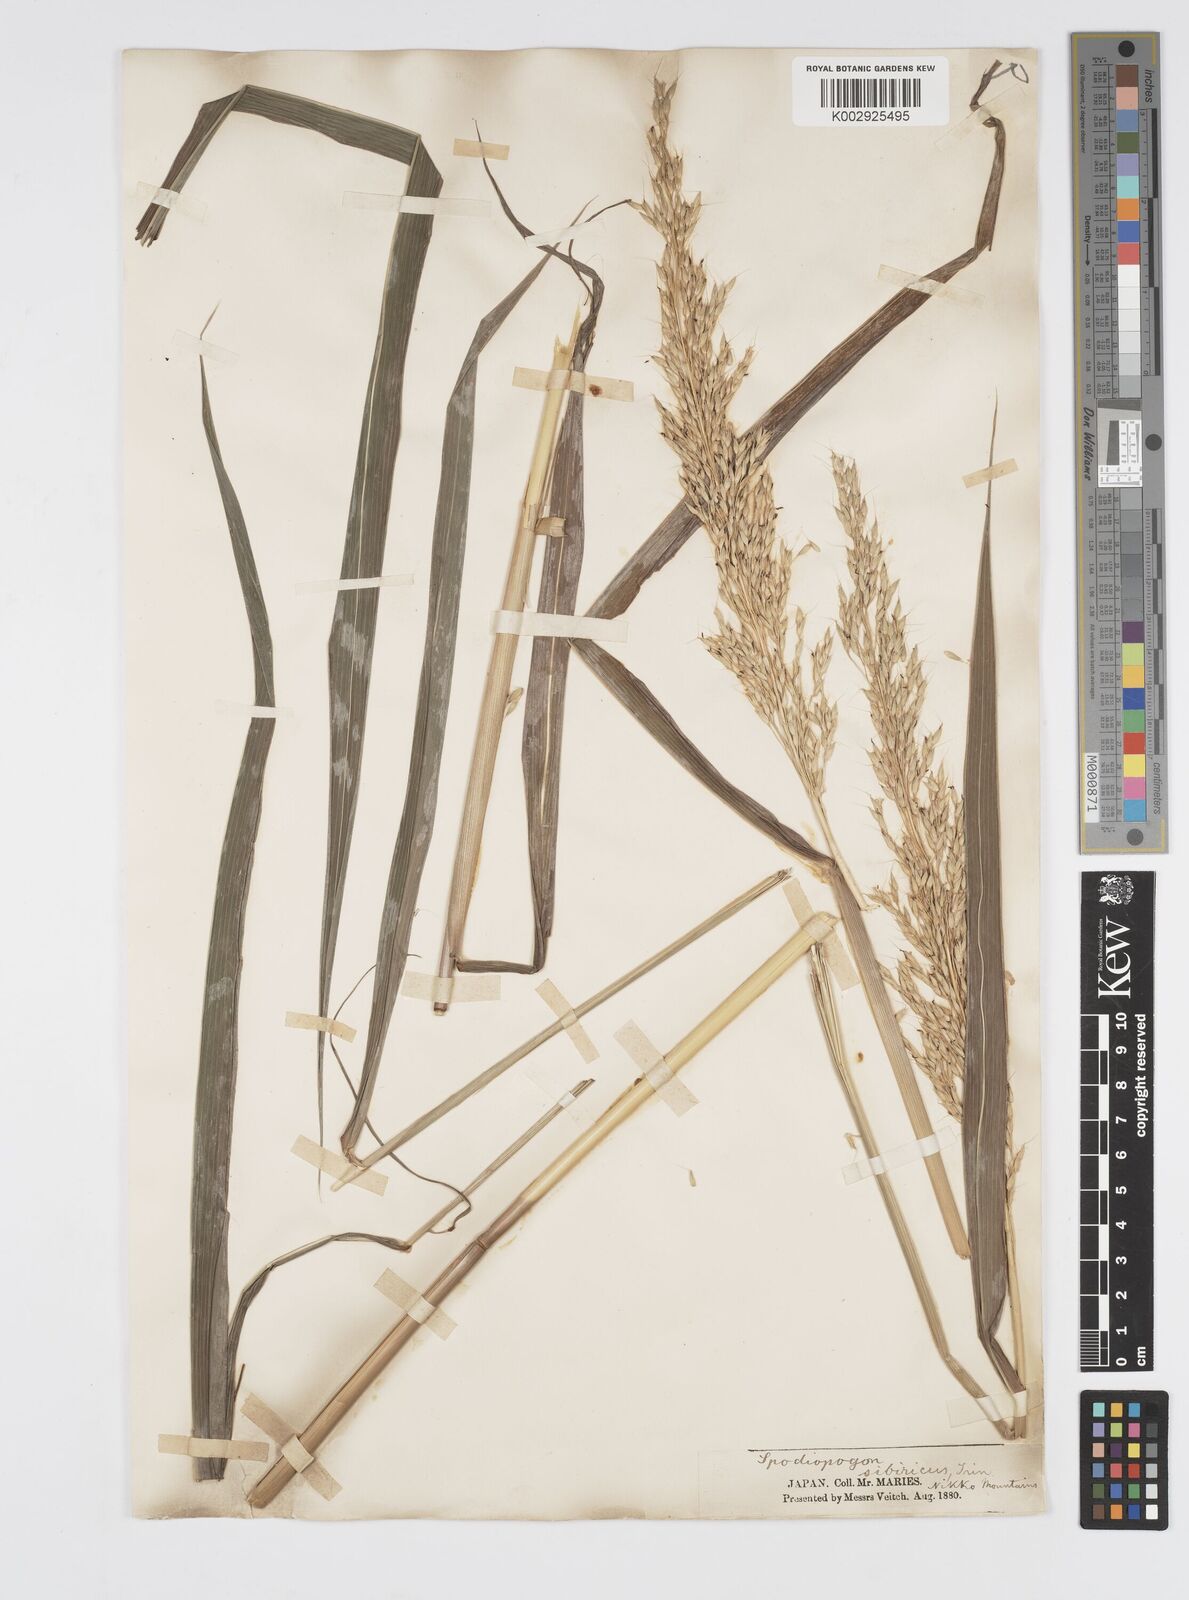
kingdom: Plantae
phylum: Tracheophyta
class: Liliopsida
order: Poales
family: Poaceae
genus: Spodiopogon
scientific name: Spodiopogon sibiricus
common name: Siberian graybeard
